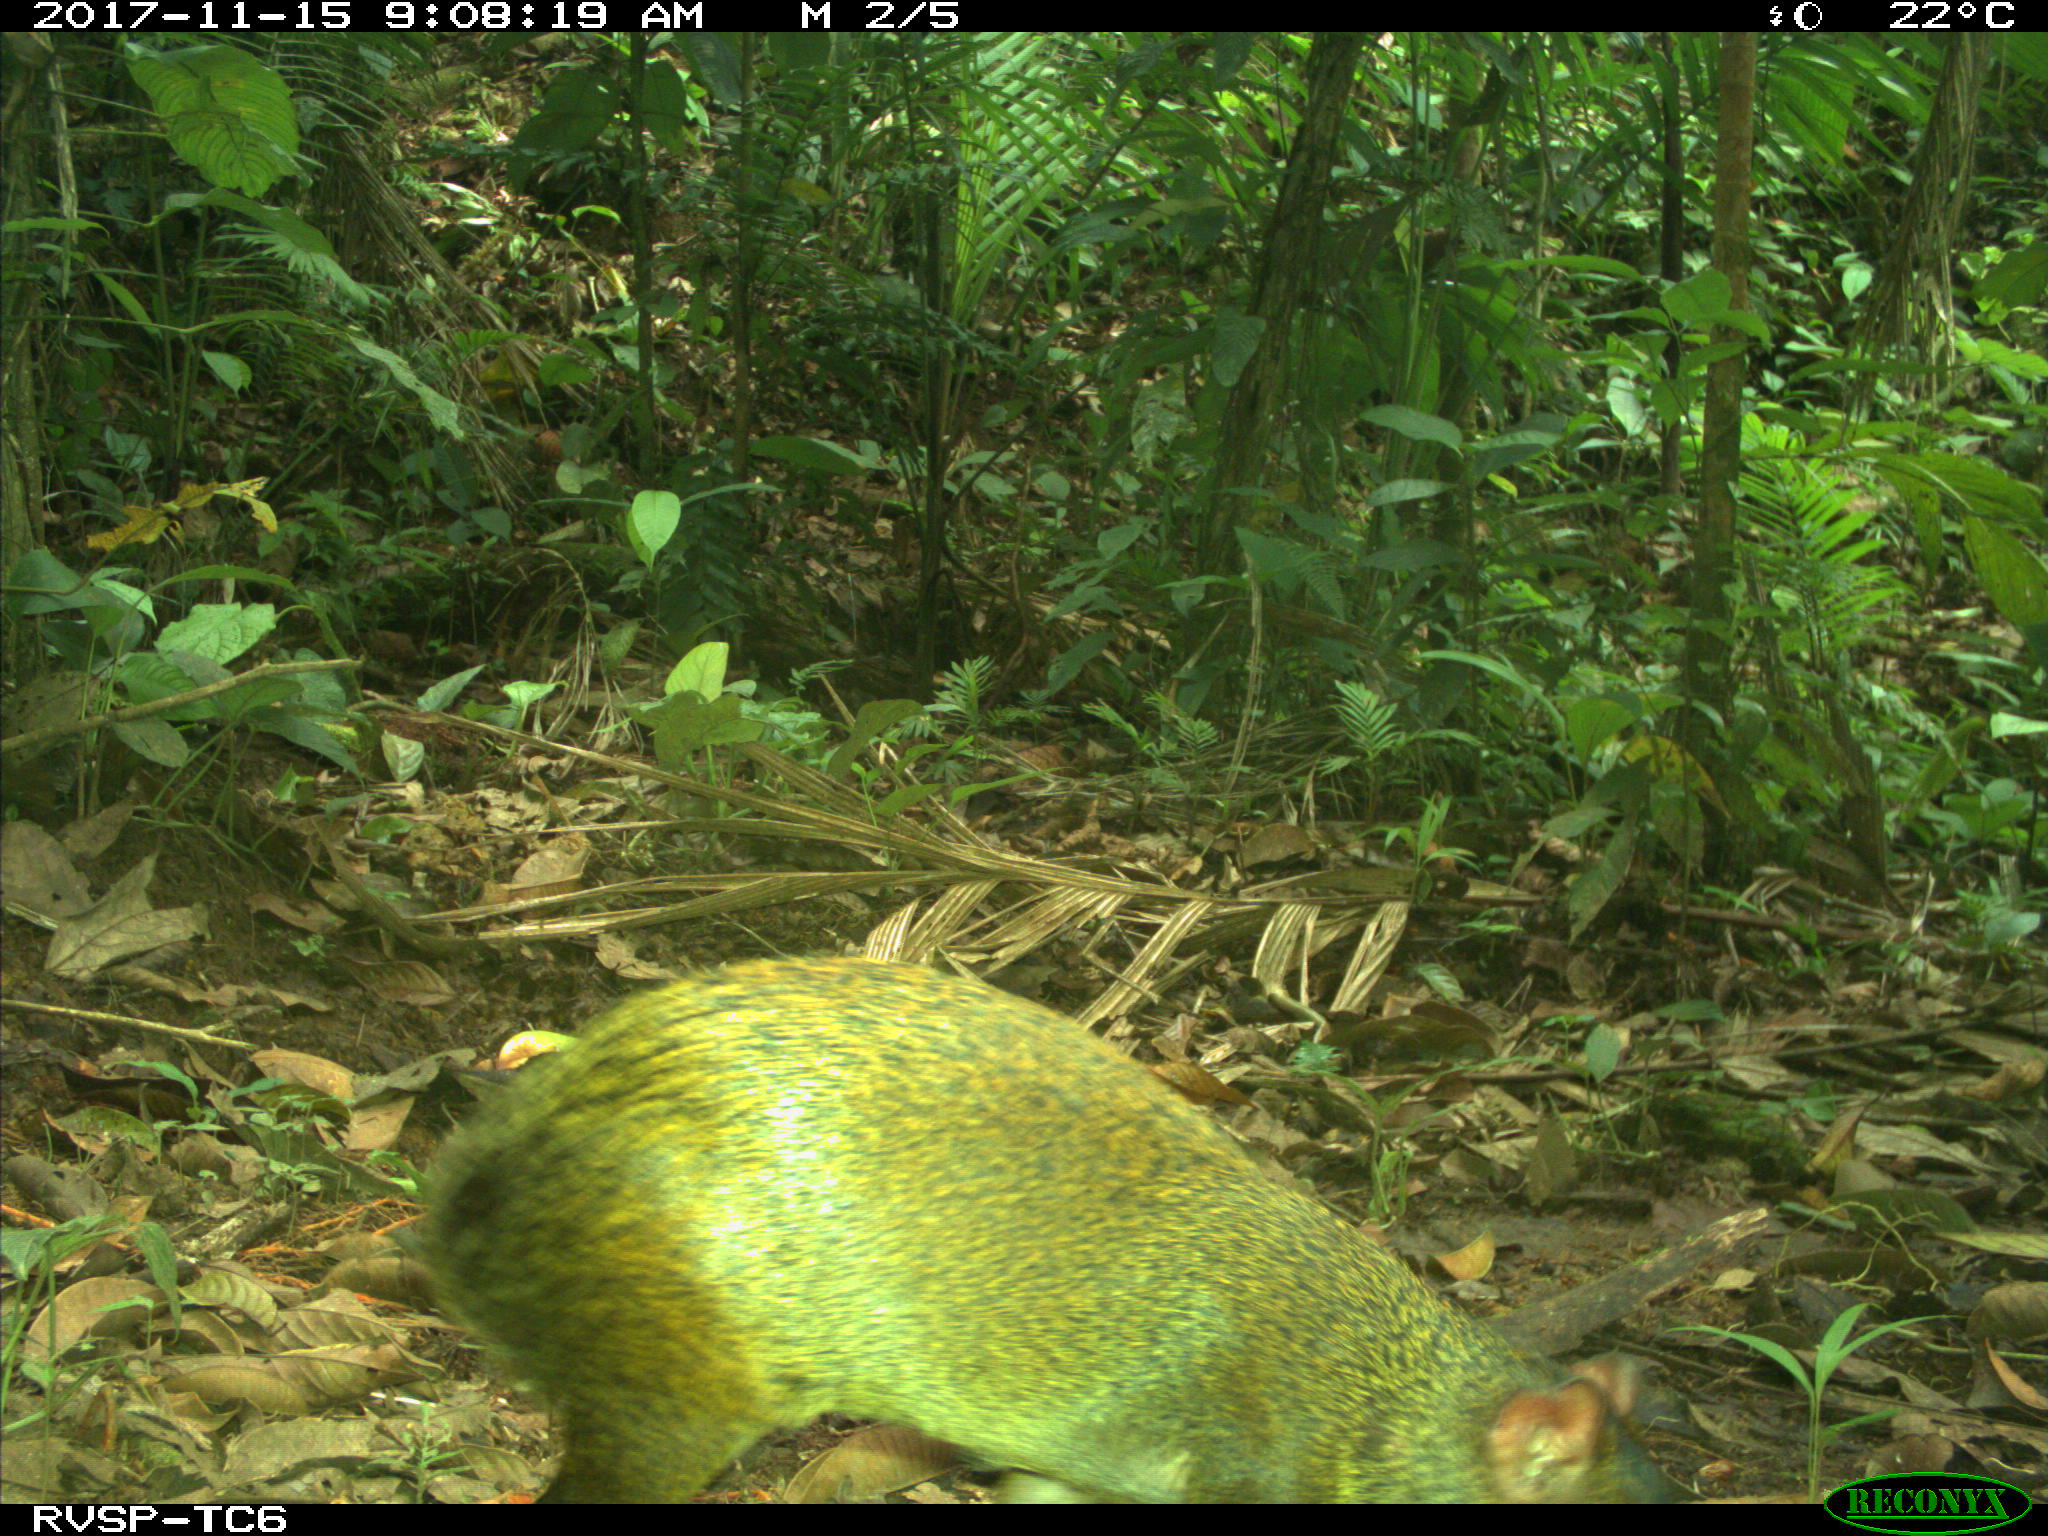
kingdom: Animalia
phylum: Chordata
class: Mammalia
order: Rodentia
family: Dasyproctidae
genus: Dasyprocta
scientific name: Dasyprocta punctata
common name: Central american agouti
